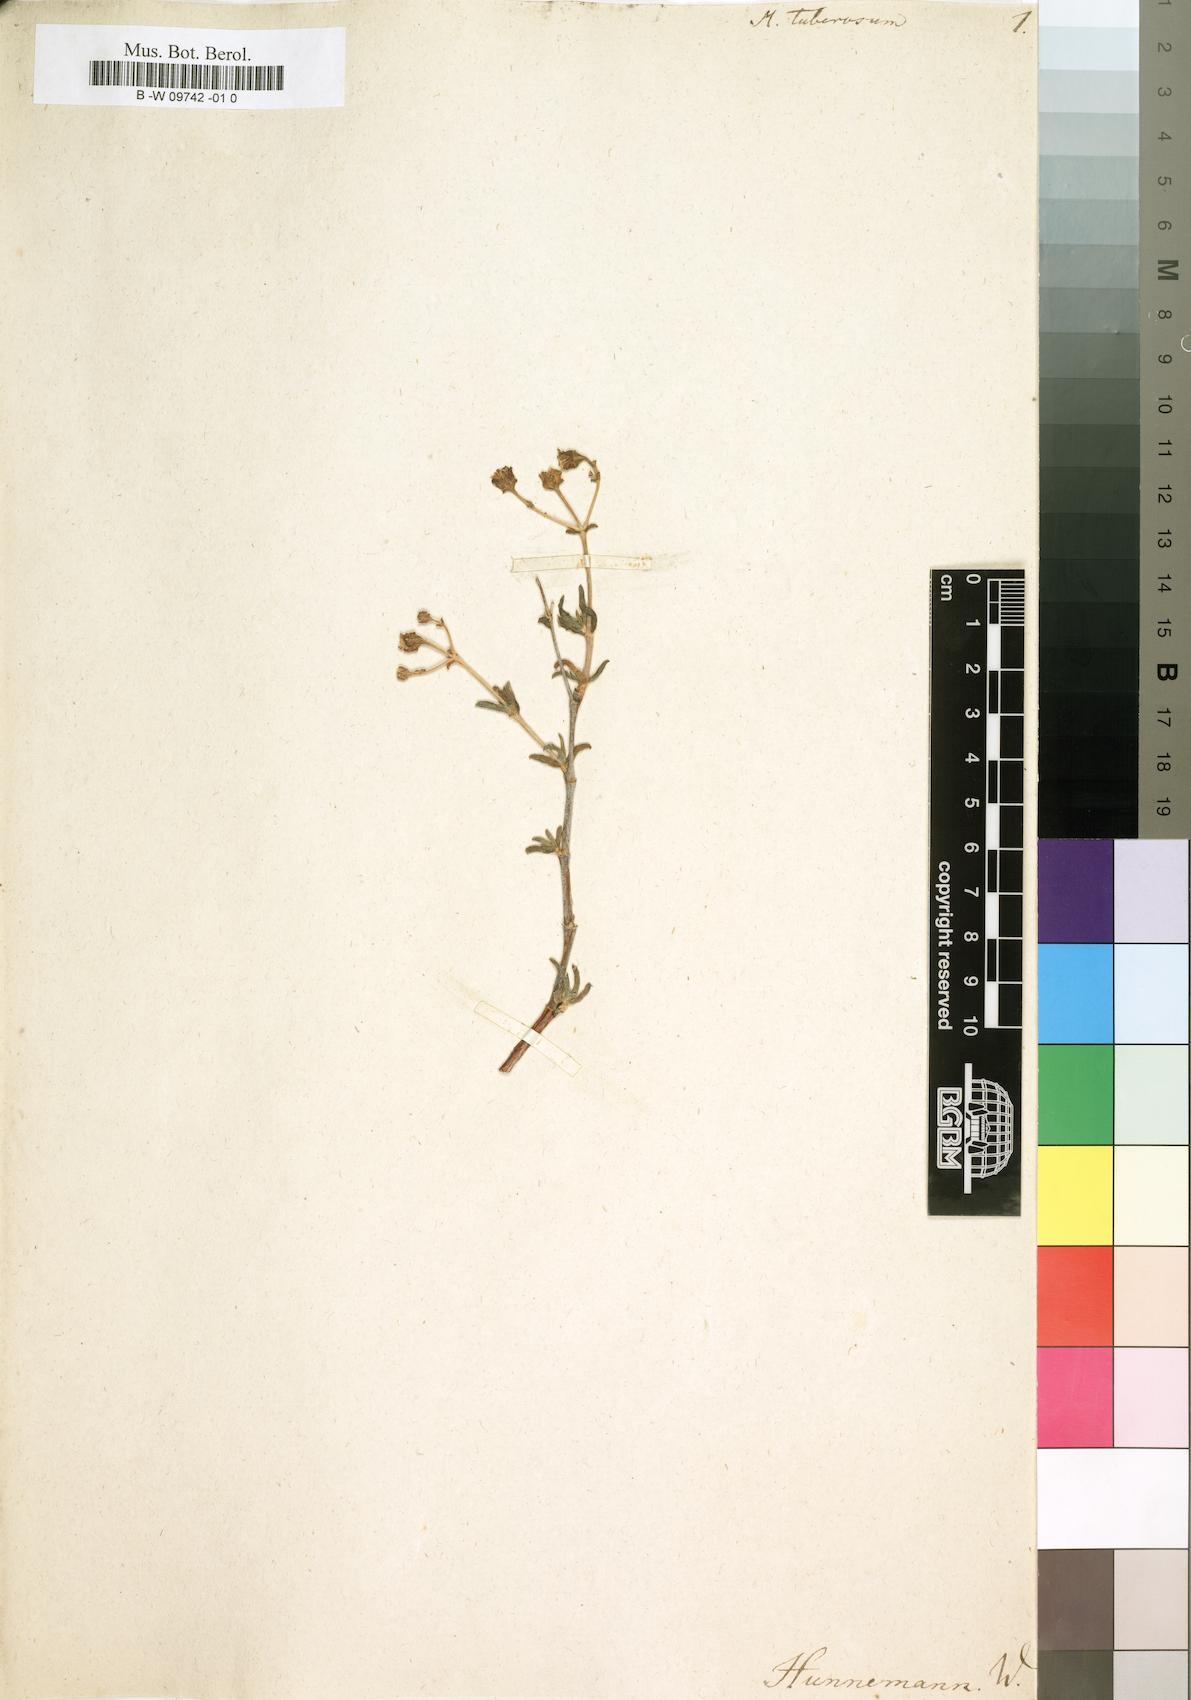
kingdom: Plantae
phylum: Tracheophyta
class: Magnoliopsida
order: Caryophyllales
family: Aizoaceae
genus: Mestoklema
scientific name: Mestoklema tuberosum
